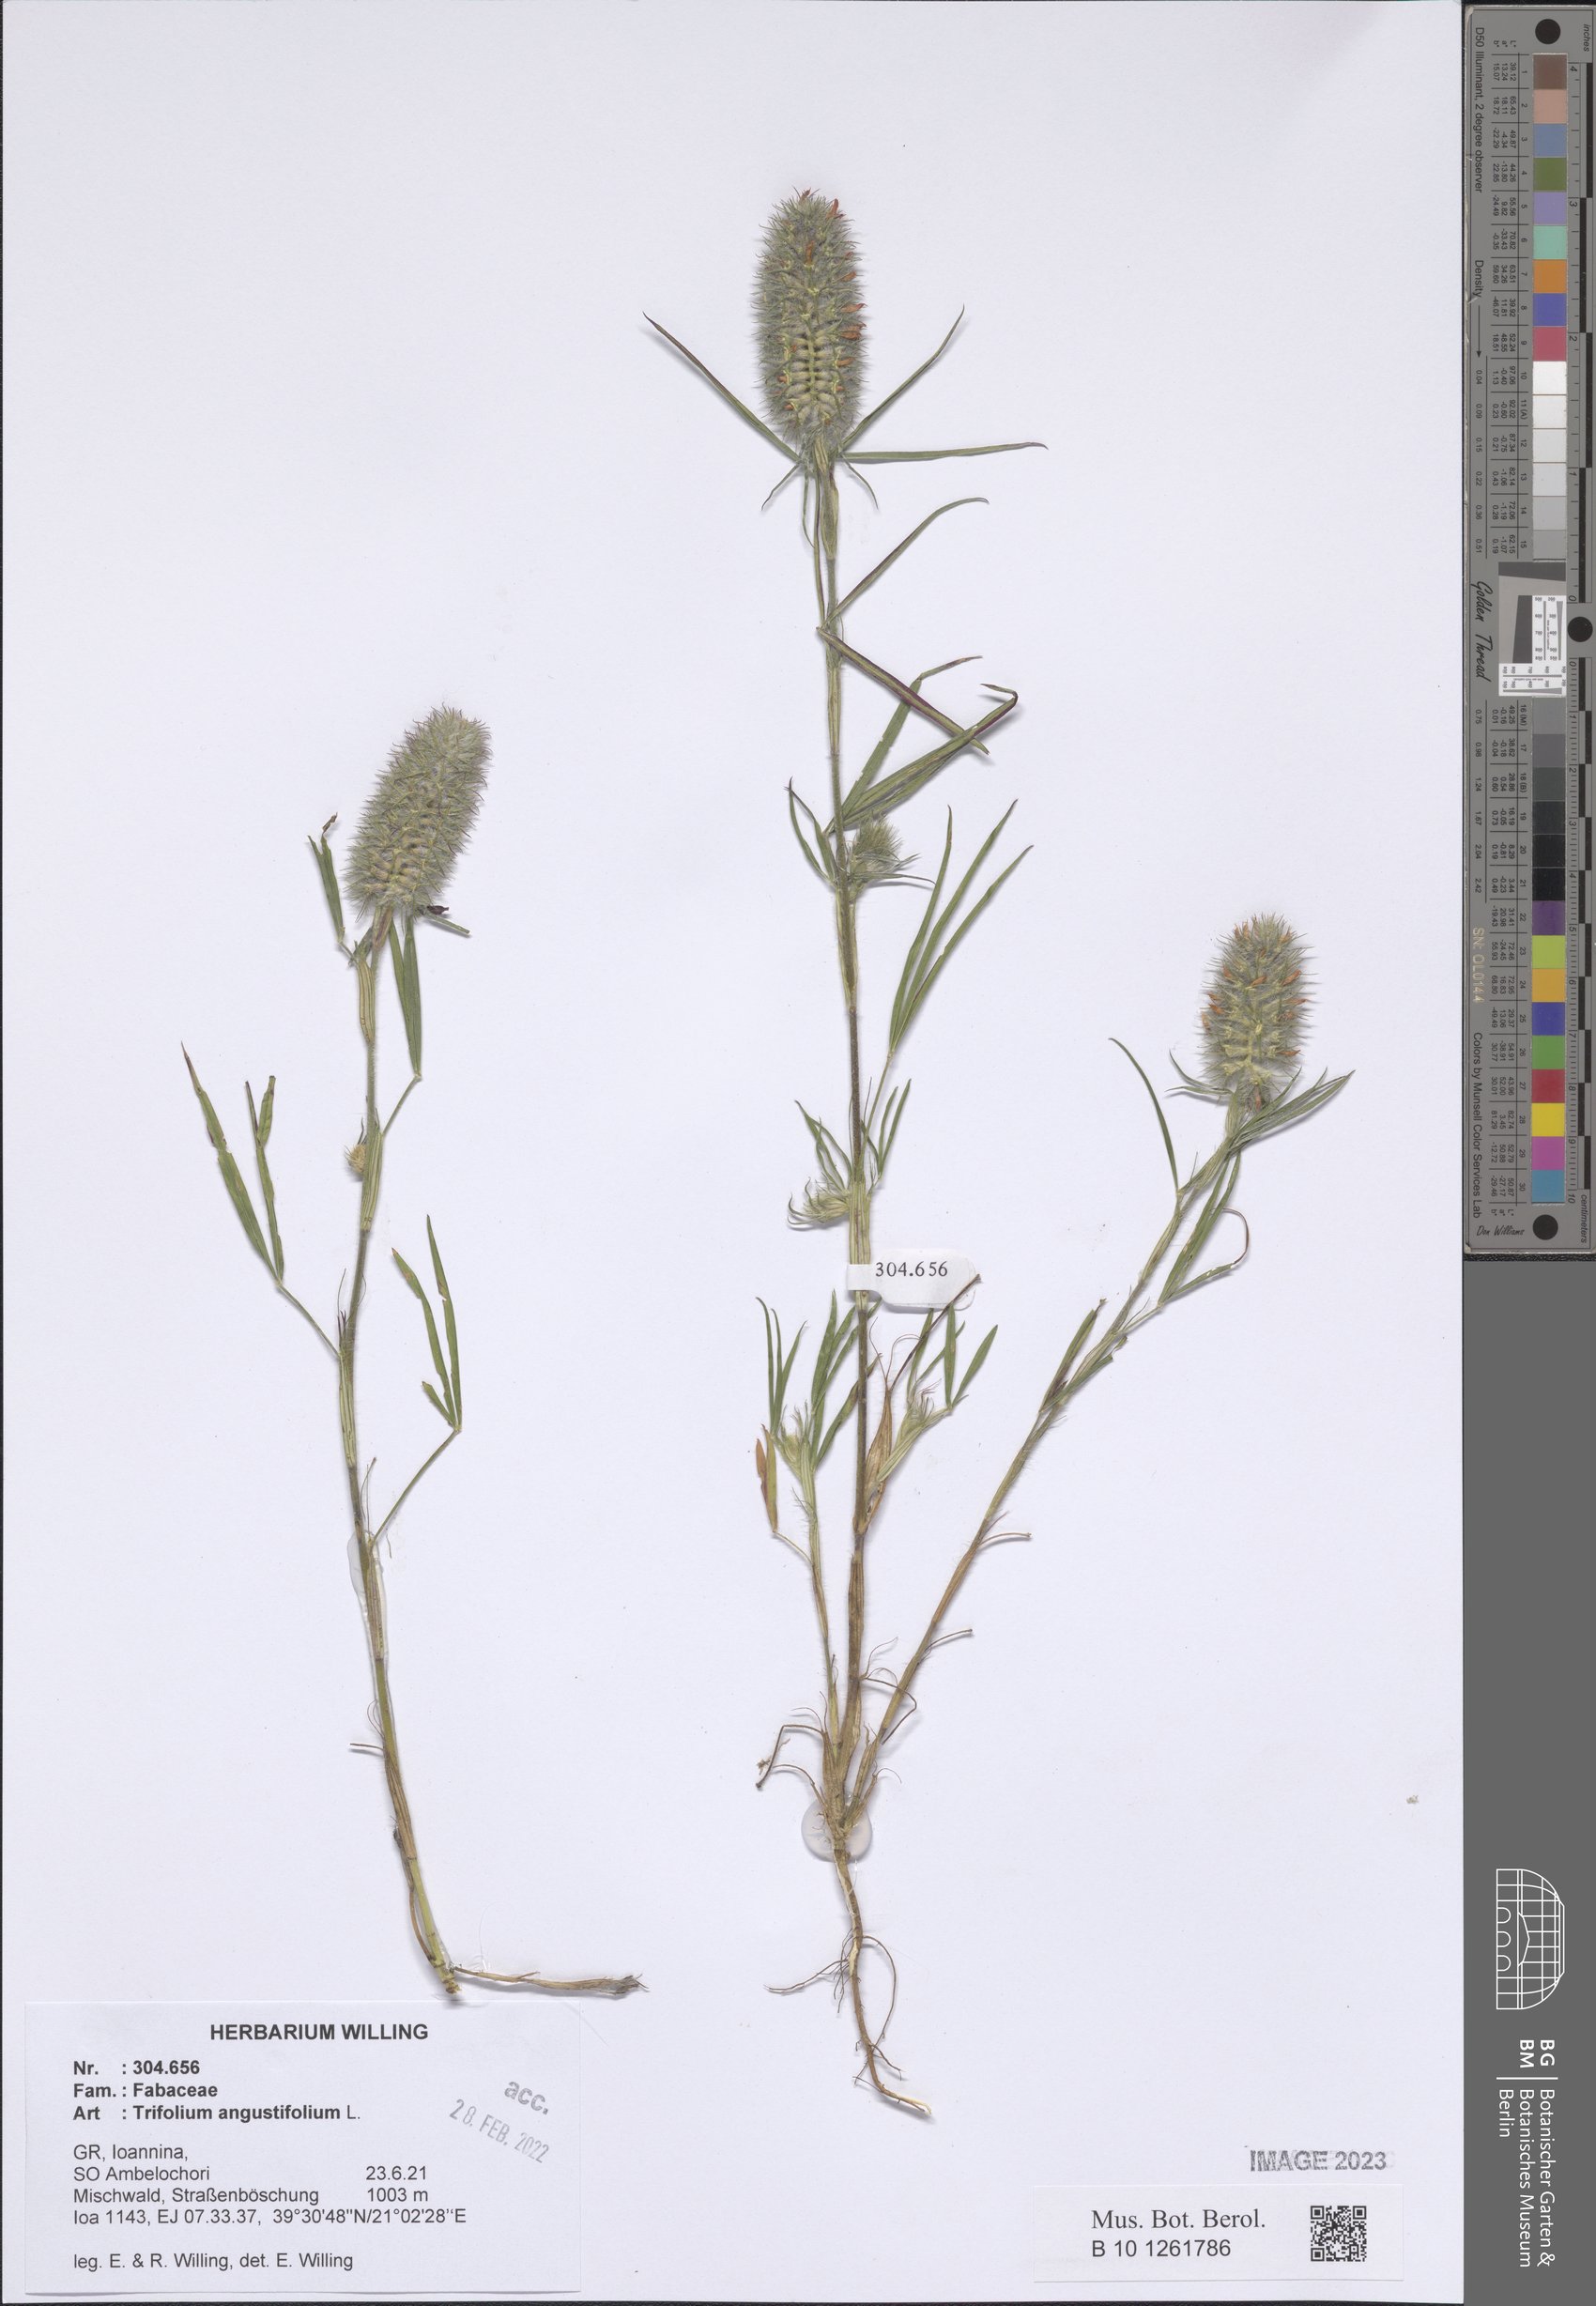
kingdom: Plantae
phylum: Tracheophyta
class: Magnoliopsida
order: Fabales
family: Fabaceae
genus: Trifolium
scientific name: Trifolium angustifolium
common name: Narrow clover
